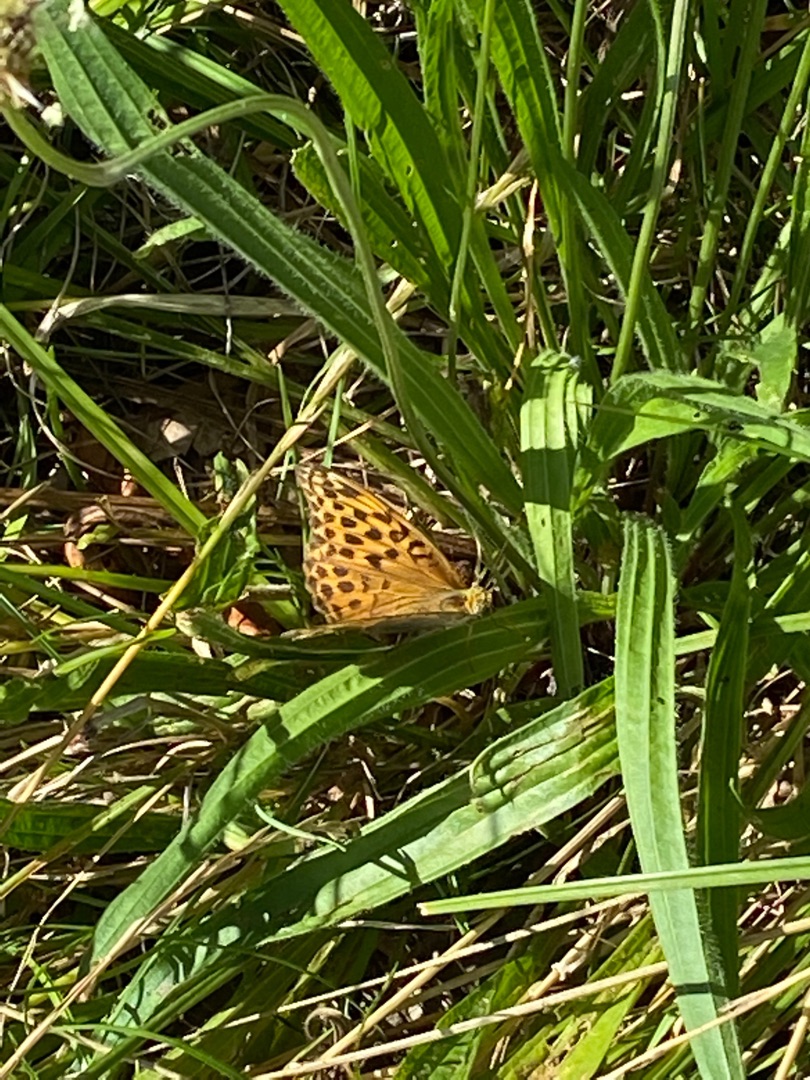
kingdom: Animalia
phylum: Arthropoda
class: Insecta
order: Lepidoptera
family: Nymphalidae
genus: Argynnis
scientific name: Argynnis paphia
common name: Kejserkåbe
